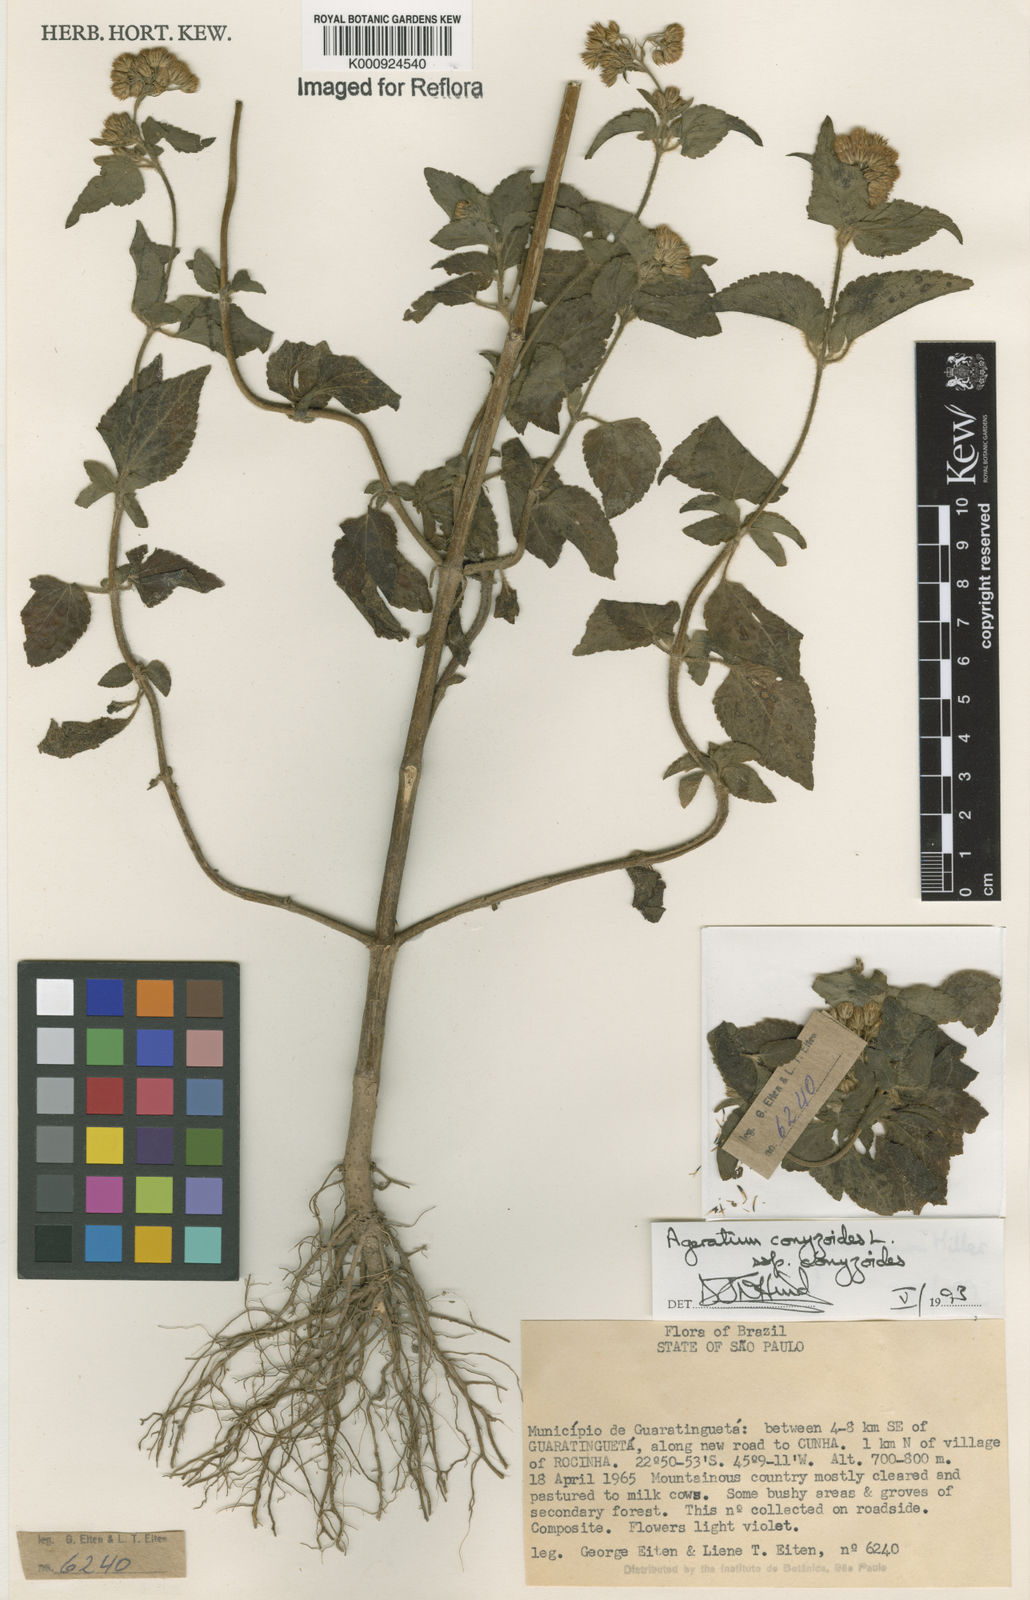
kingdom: Plantae
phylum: Tracheophyta
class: Magnoliopsida
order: Asterales
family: Asteraceae
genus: Ageratum
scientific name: Ageratum conyzoides
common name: Tropical whiteweed
